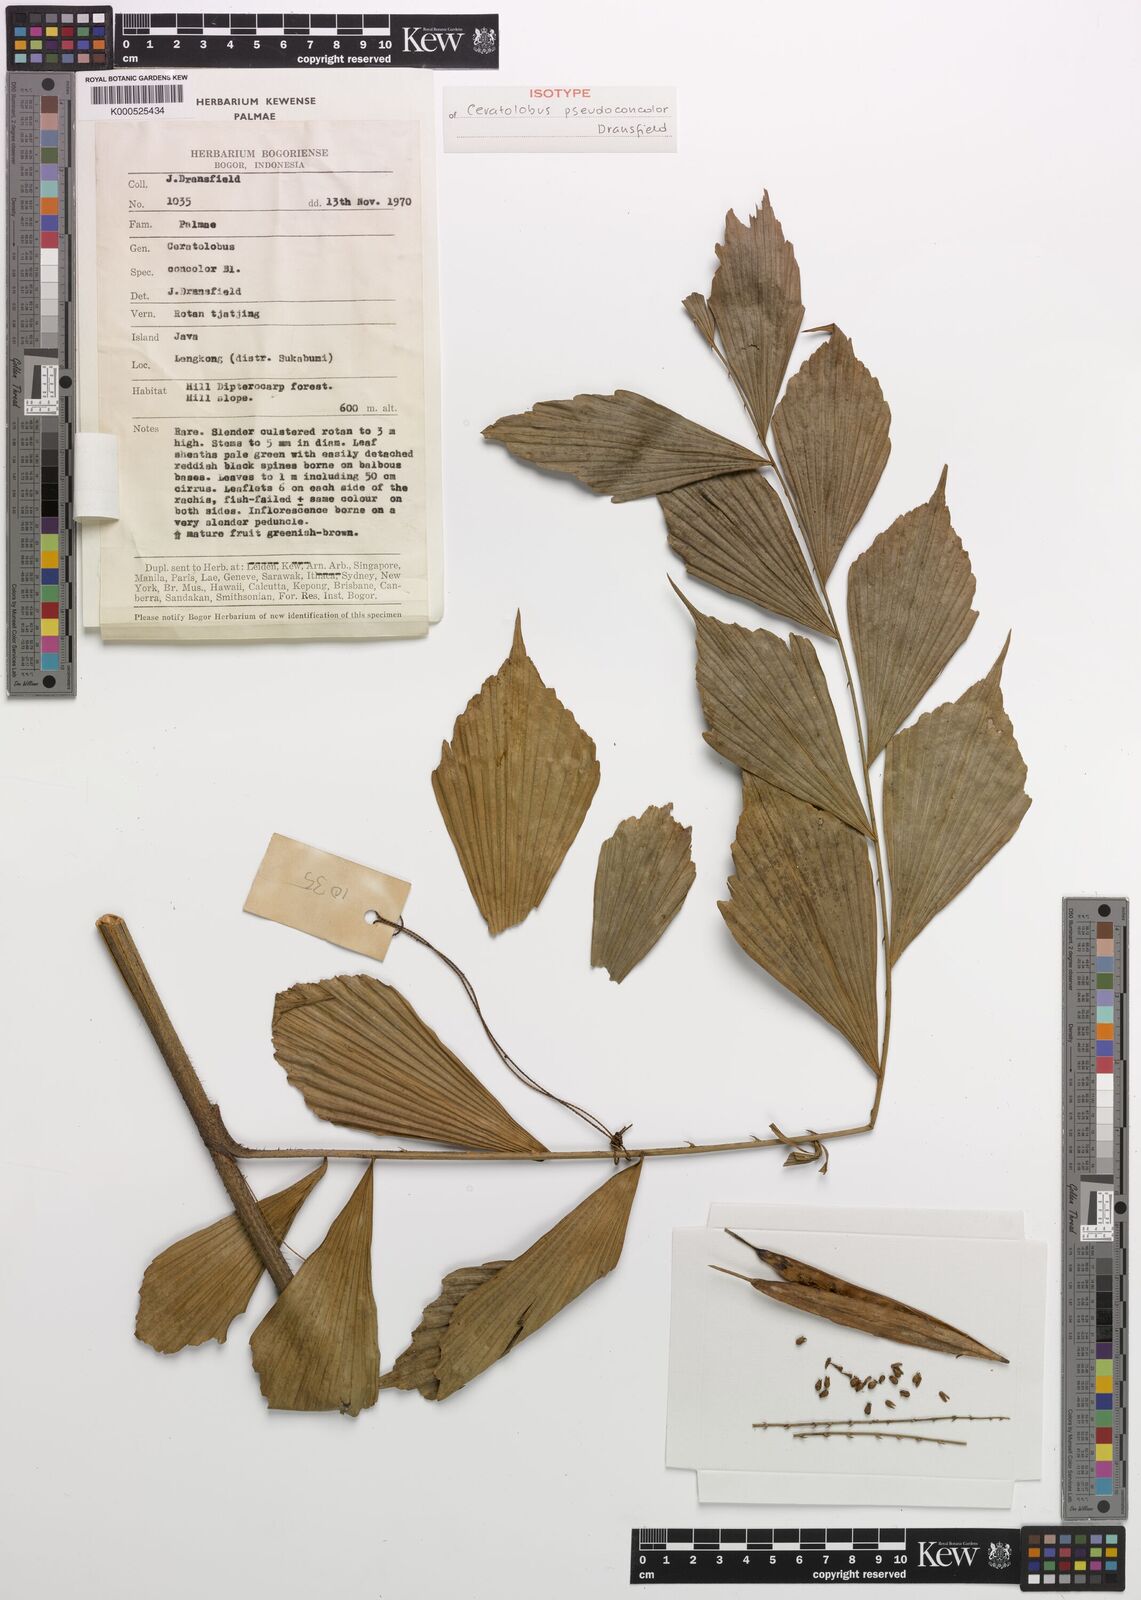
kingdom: Plantae
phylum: Tracheophyta
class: Liliopsida
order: Arecales
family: Arecaceae
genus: Calamus
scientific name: Calamus pseudoconcolor
